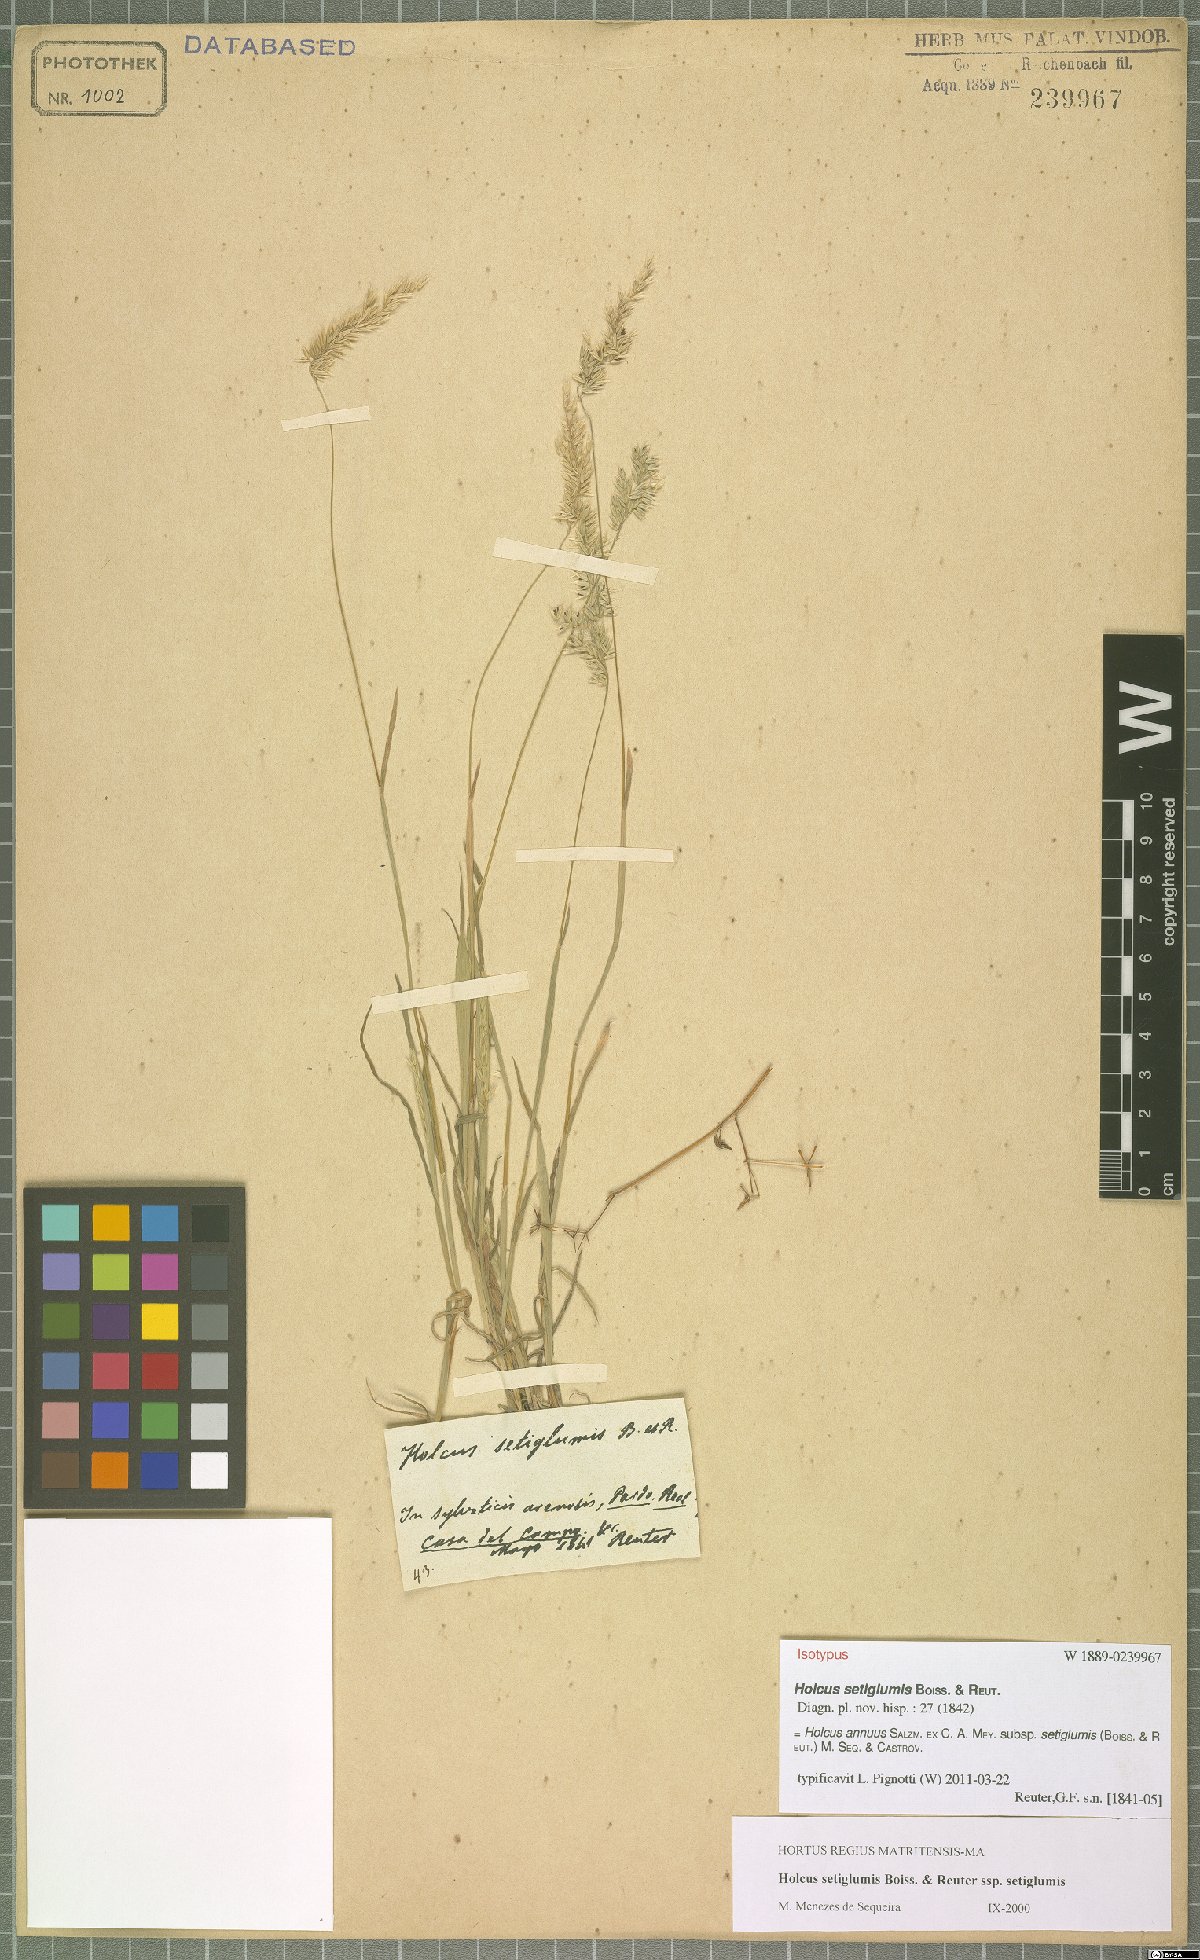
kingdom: Plantae
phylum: Tracheophyta
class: Liliopsida
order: Poales
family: Poaceae
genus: Holcus
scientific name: Holcus annuus
